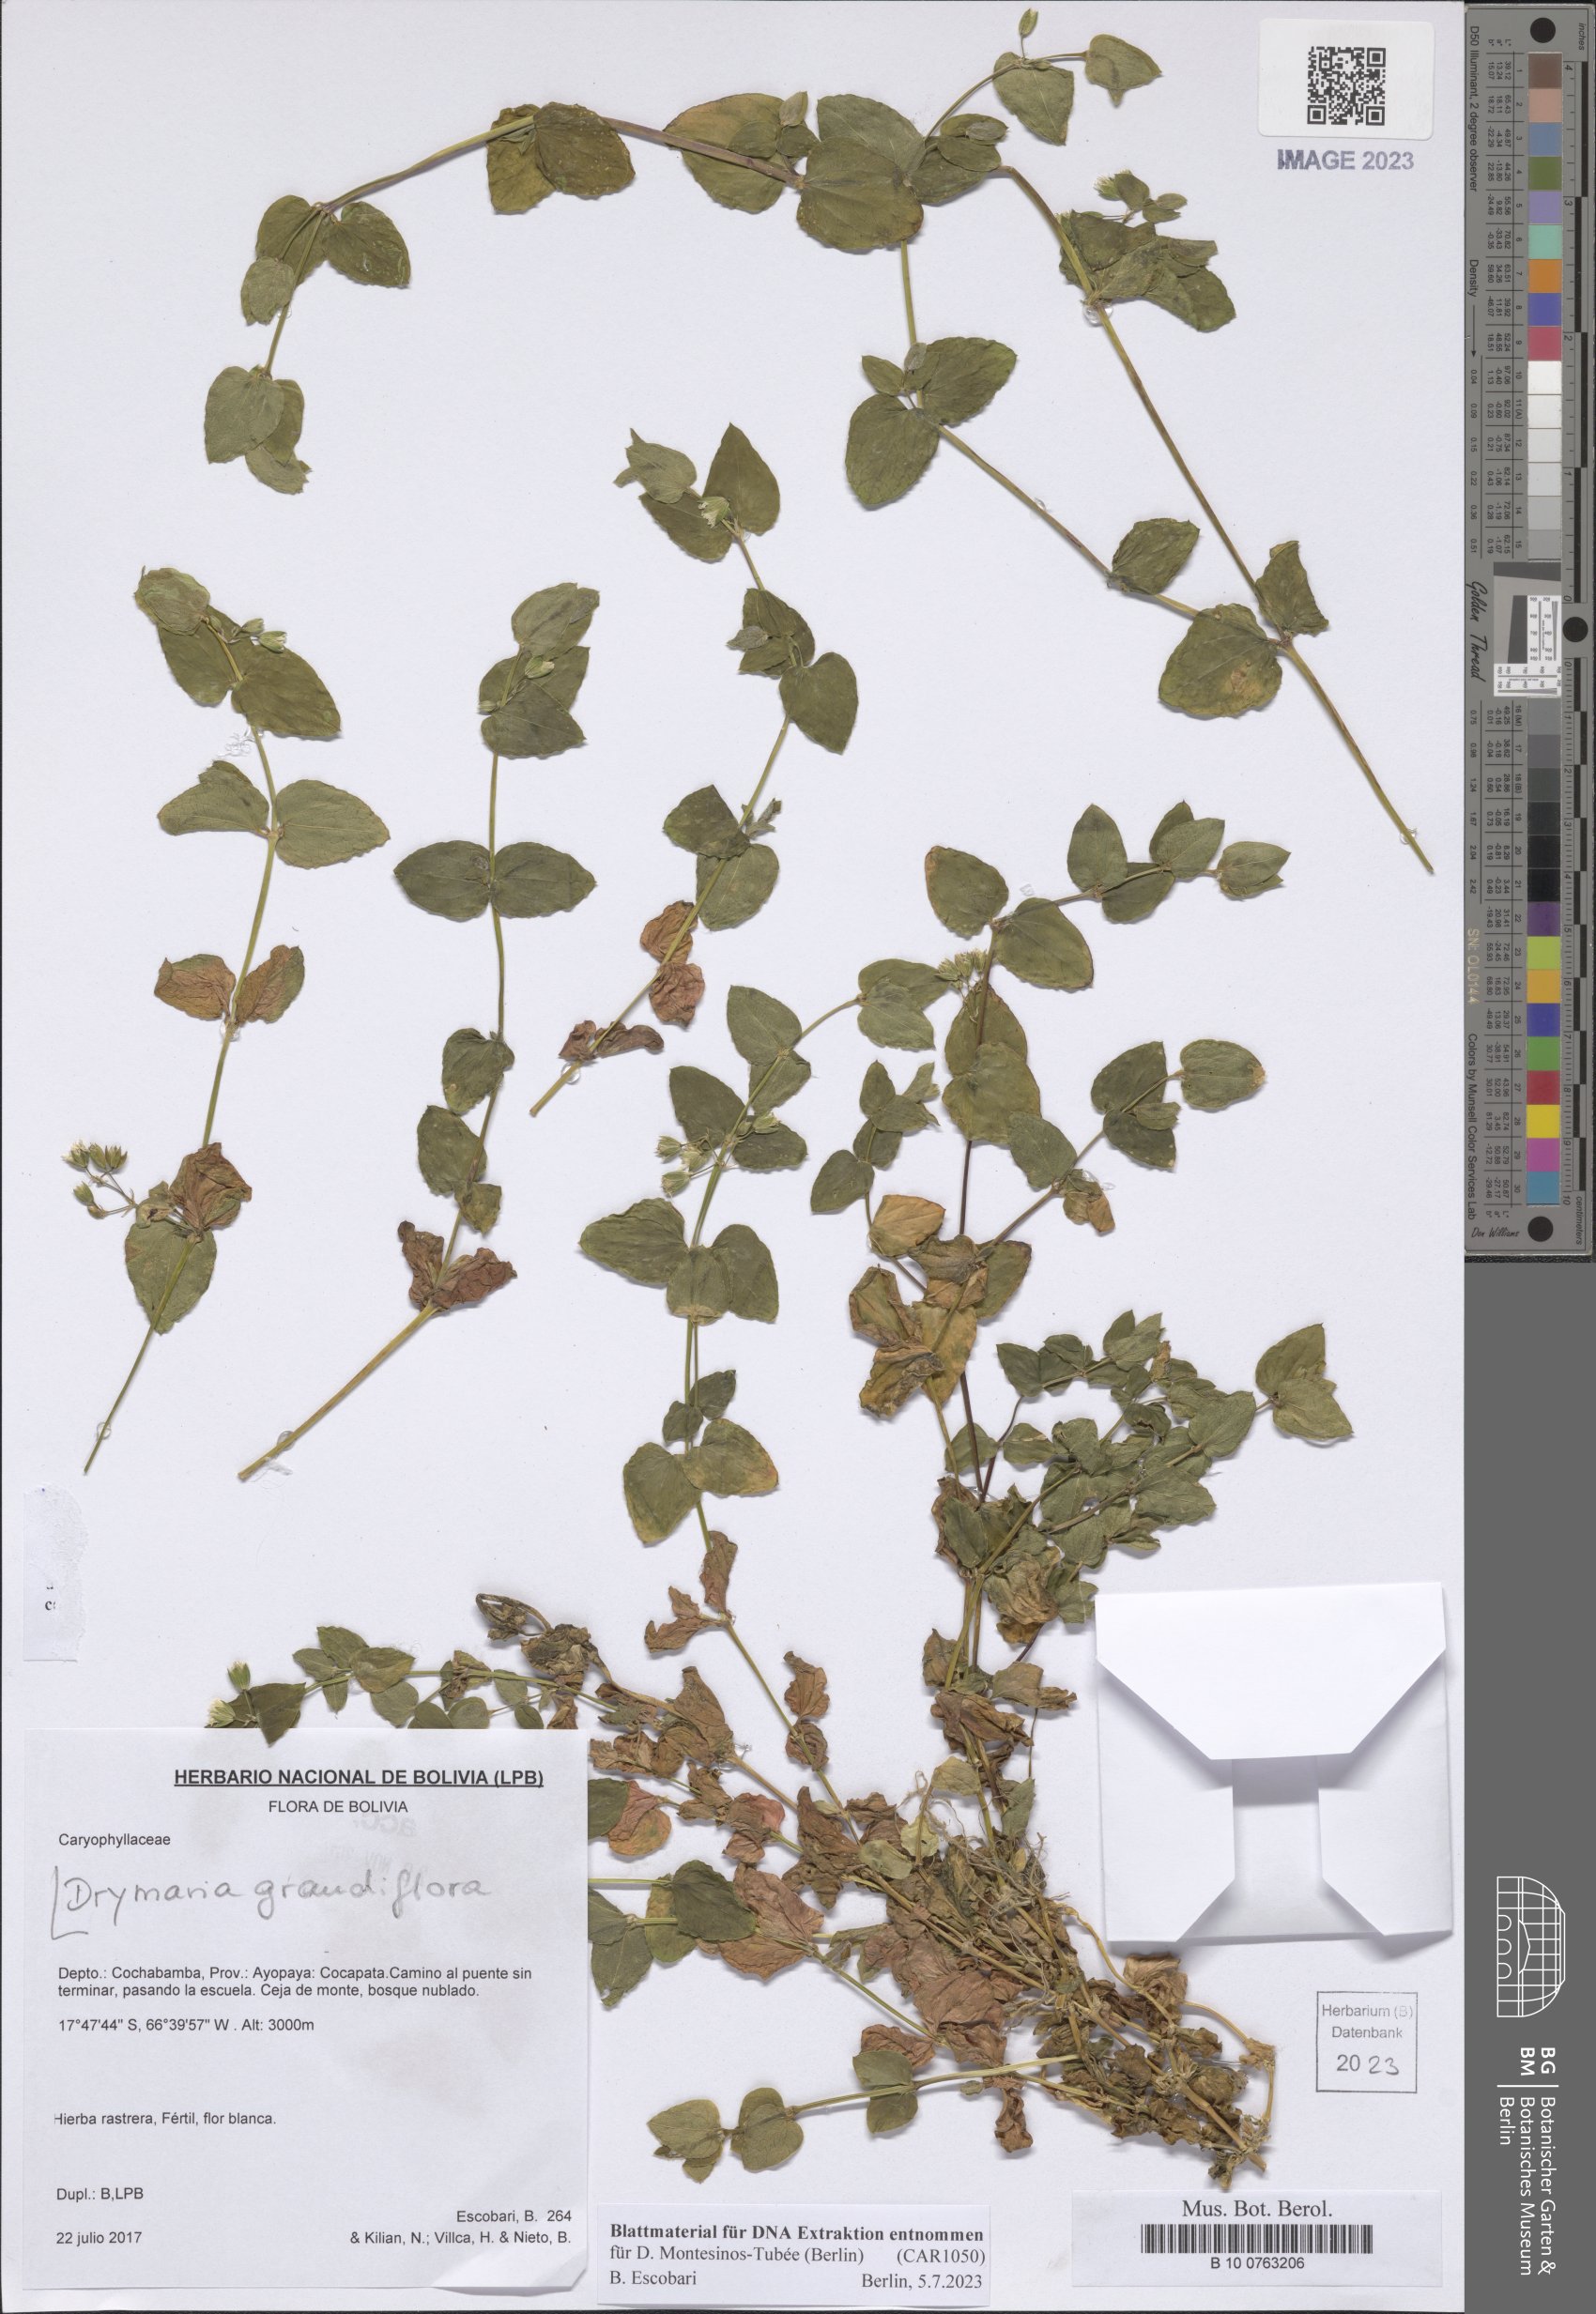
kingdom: Plantae
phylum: Tracheophyta
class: Magnoliopsida
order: Caryophyllales
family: Caryophyllaceae
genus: Drymaria
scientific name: Drymaria grandiflora
